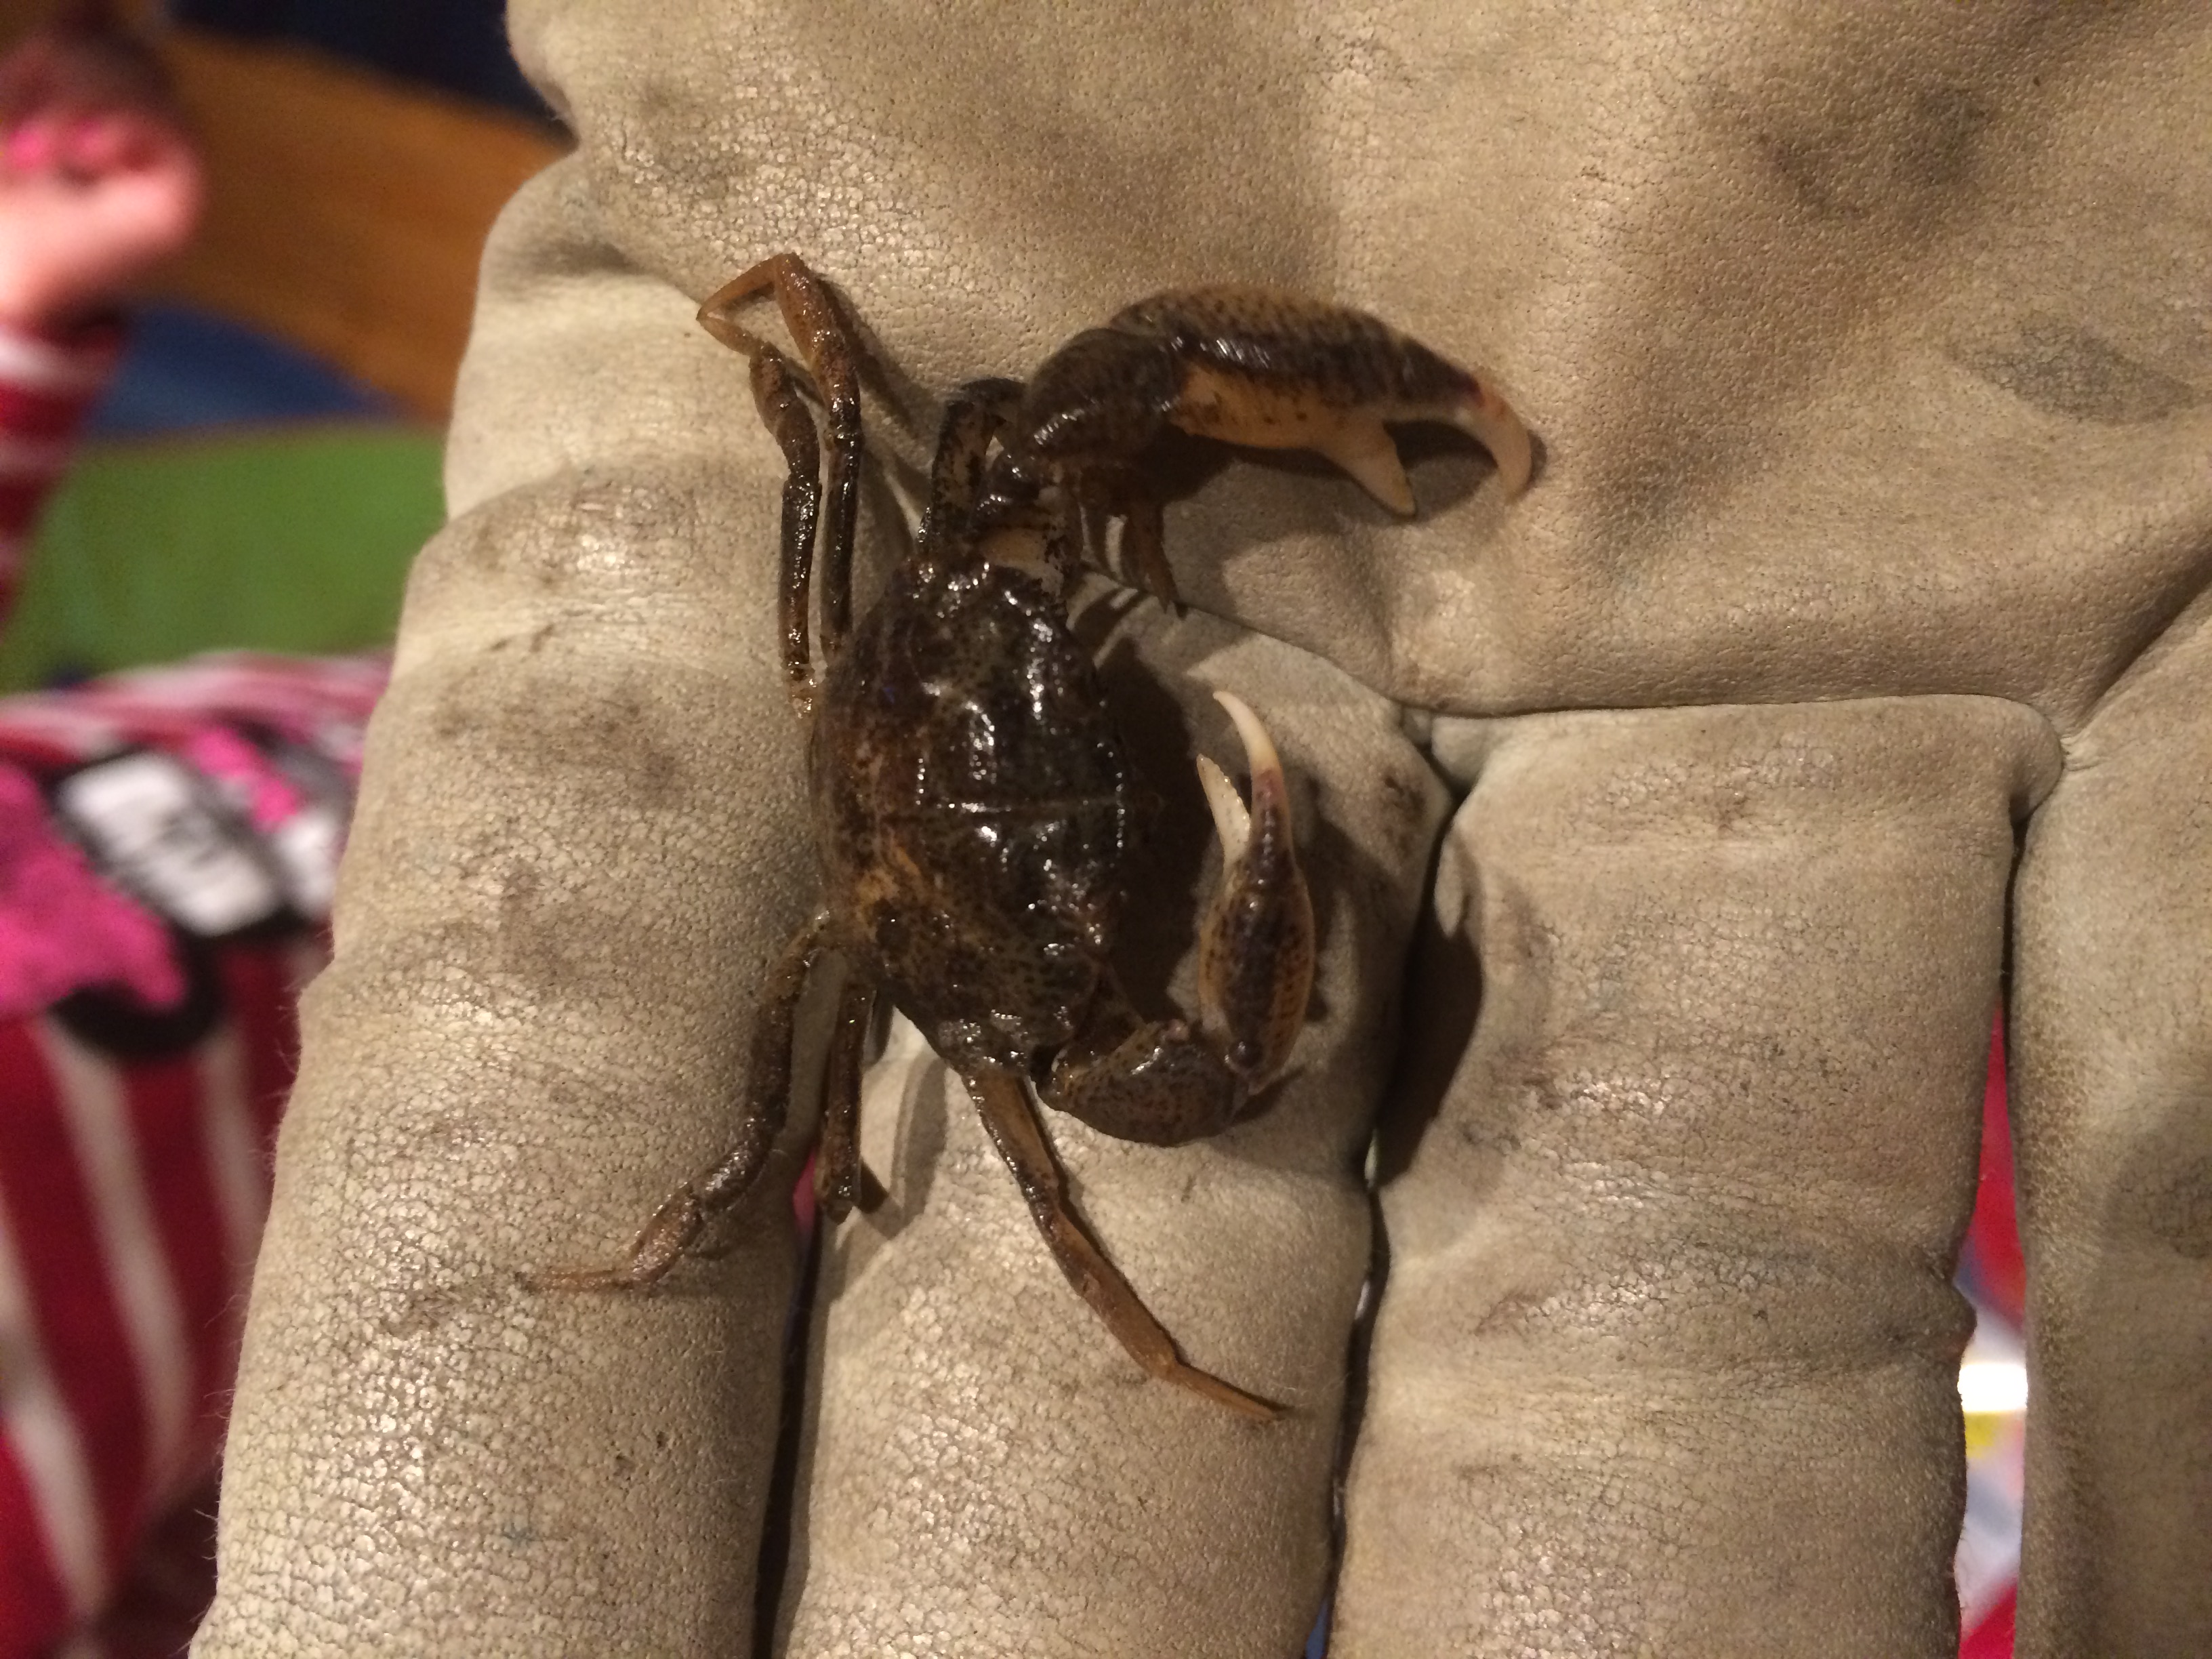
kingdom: Animalia
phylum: Arthropoda
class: Malacostraca
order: Decapoda
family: Panopeidae
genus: Rhithropanopeus
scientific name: Rhithropanopeus harrisii
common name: Dwarf crab
